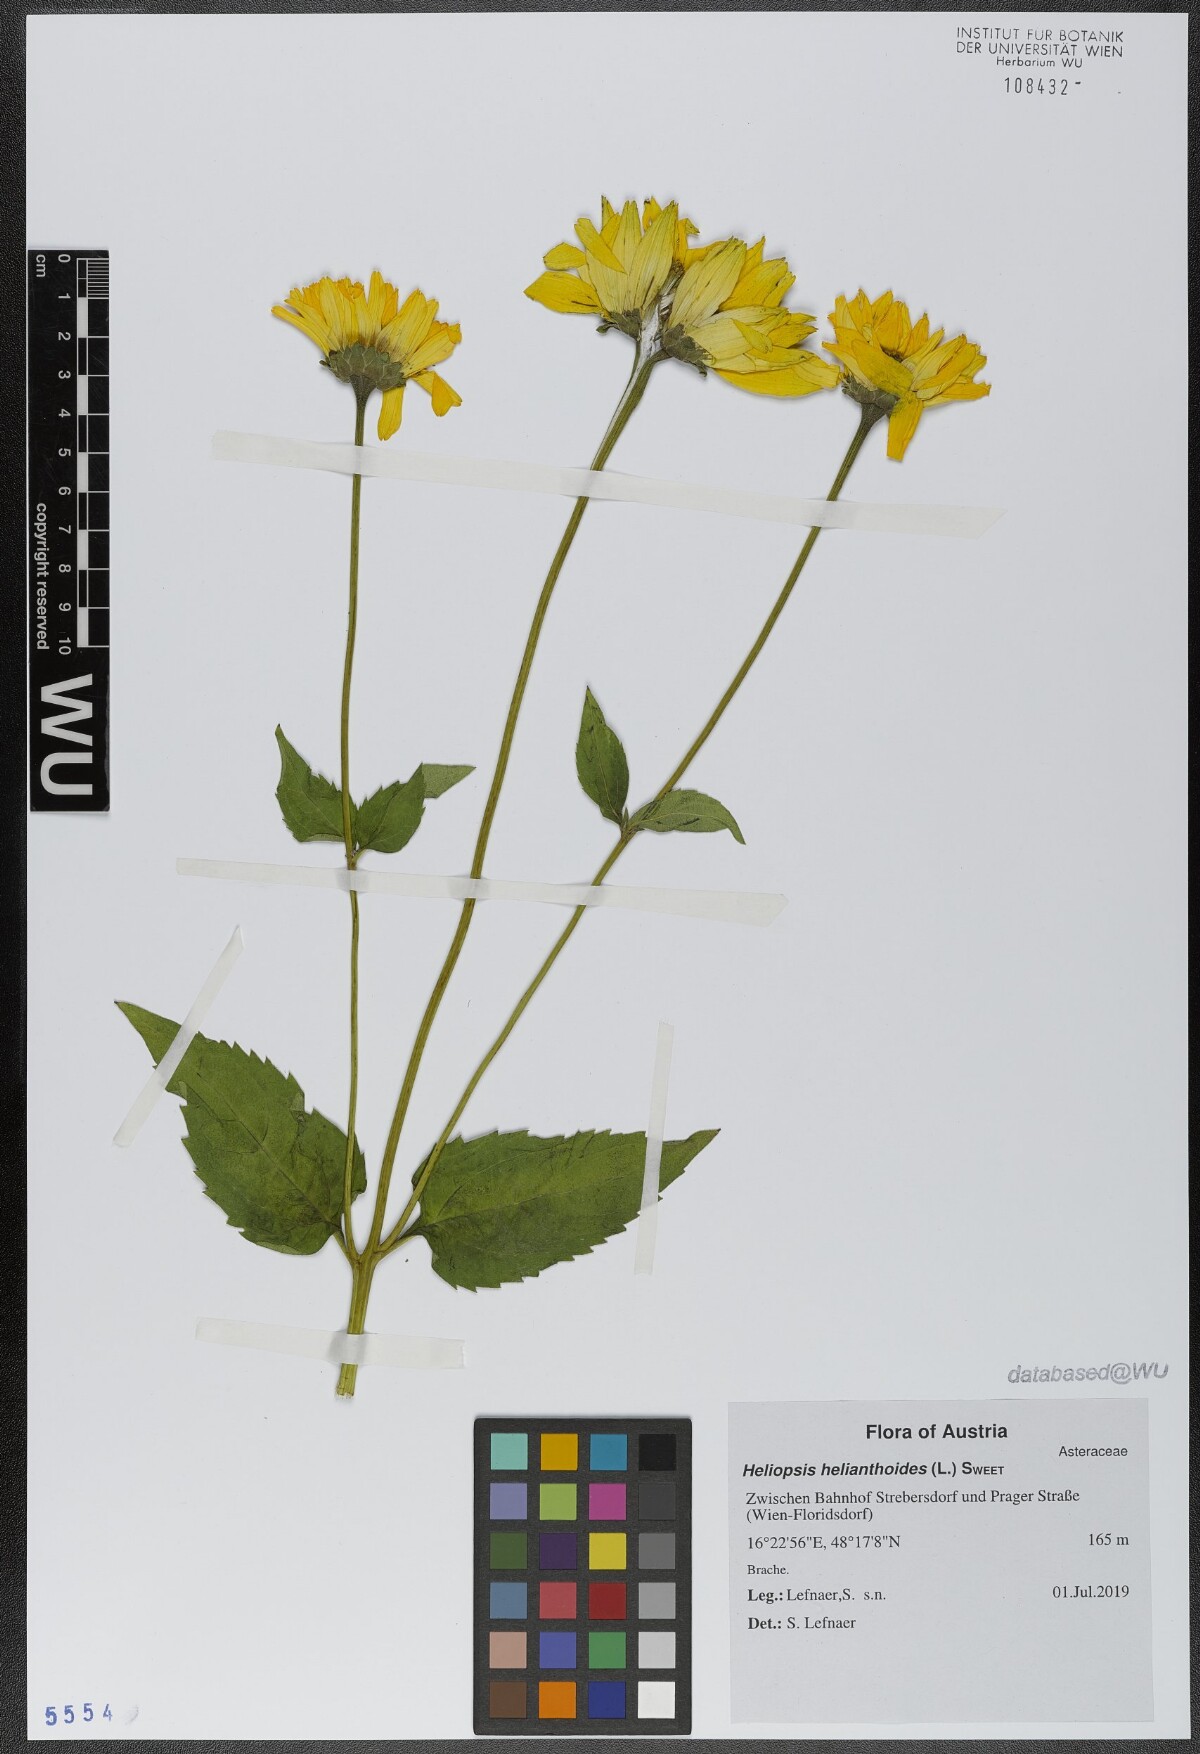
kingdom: Plantae
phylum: Tracheophyta
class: Magnoliopsida
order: Asterales
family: Asteraceae
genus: Heliopsis
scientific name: Heliopsis helianthoides
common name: False sunflower
